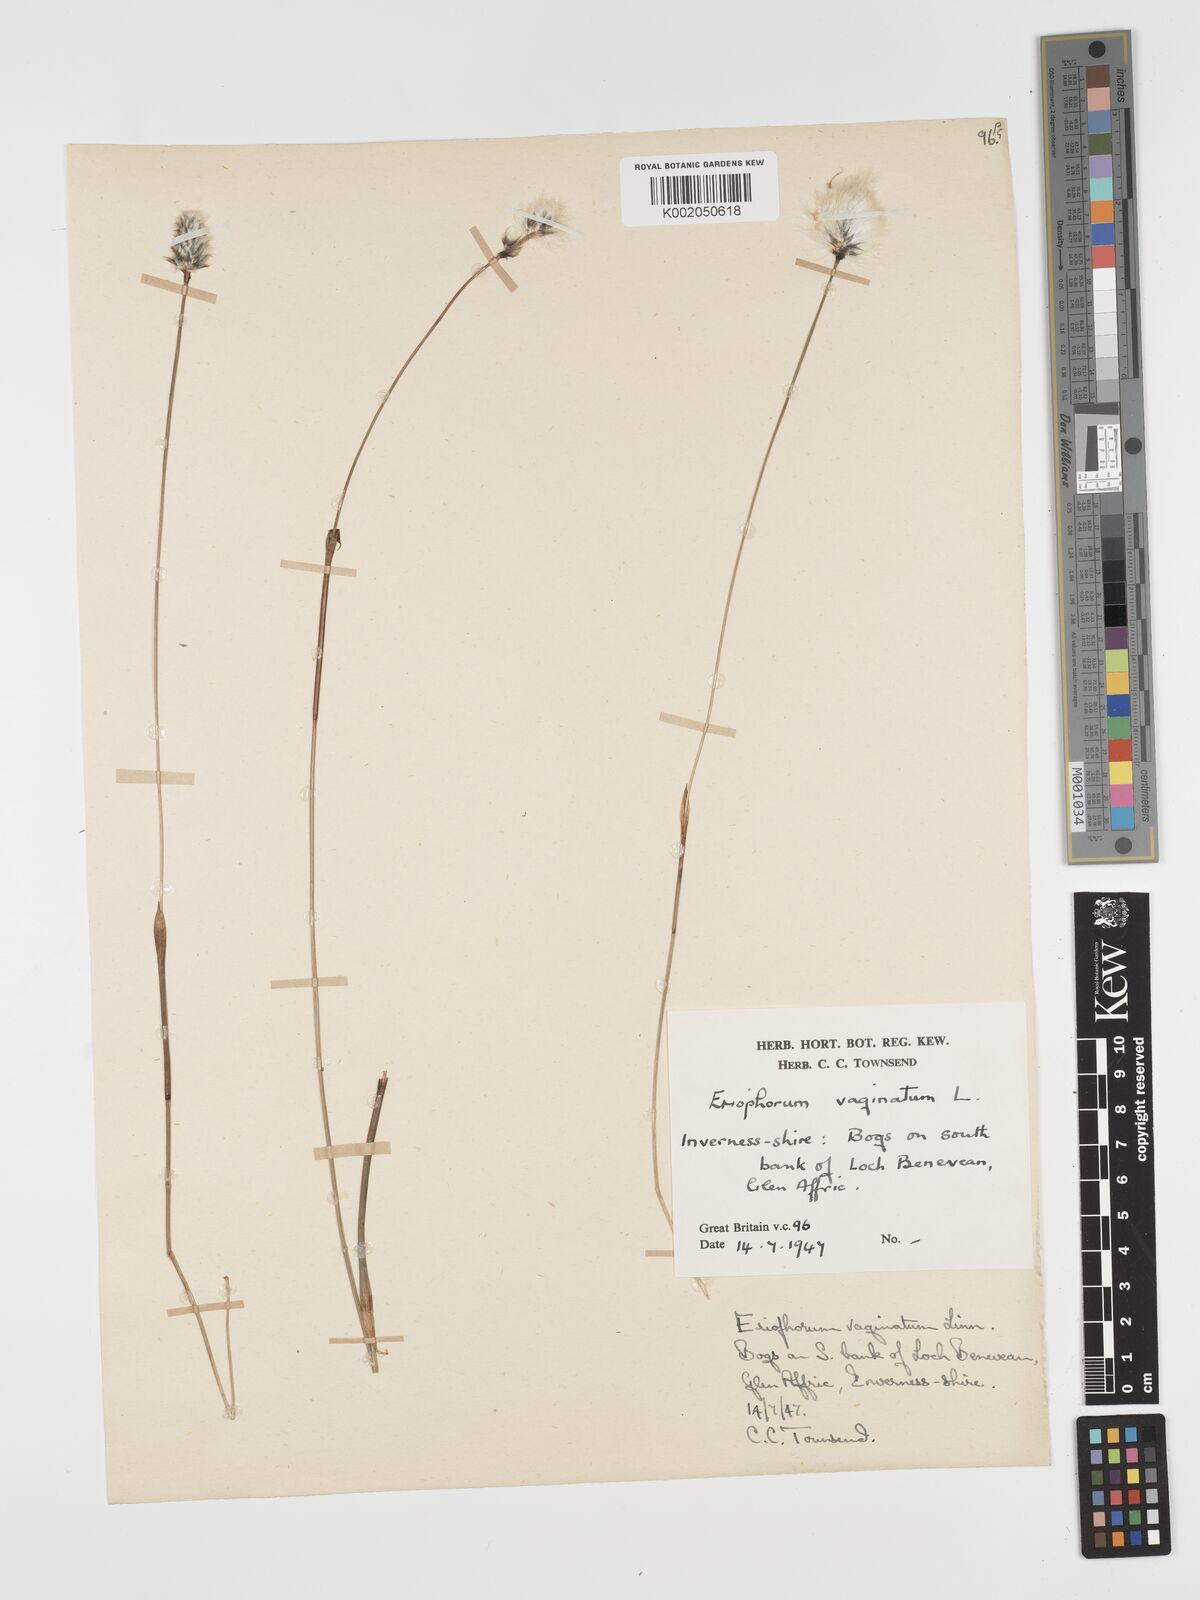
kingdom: Plantae
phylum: Tracheophyta
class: Liliopsida
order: Poales
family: Cyperaceae
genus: Eriophorum
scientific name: Eriophorum vaginatum
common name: Hare's-tail cottongrass
